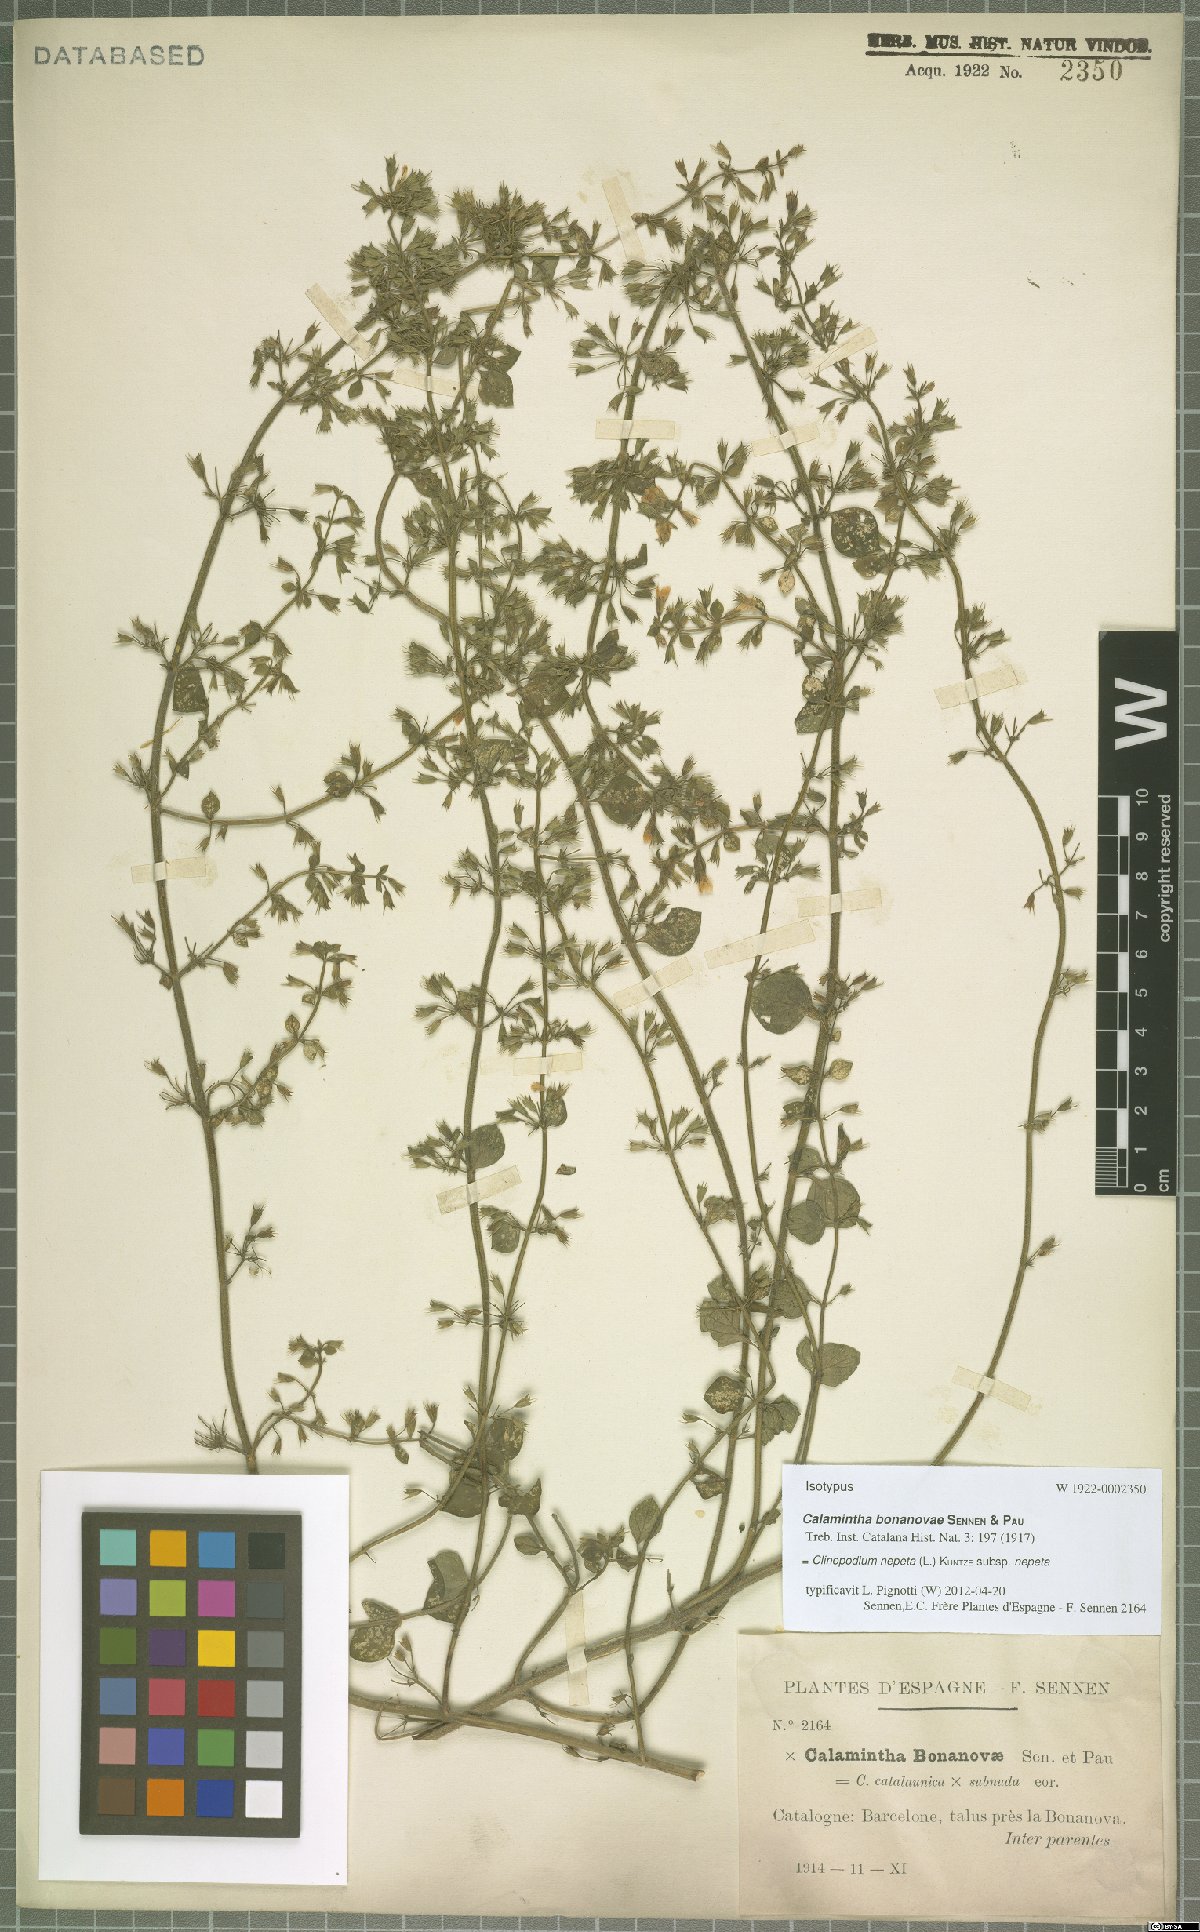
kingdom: Plantae
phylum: Tracheophyta
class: Magnoliopsida
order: Lamiales
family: Lamiaceae
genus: Clinopodium
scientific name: Clinopodium nepeta
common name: Lesser calamint
